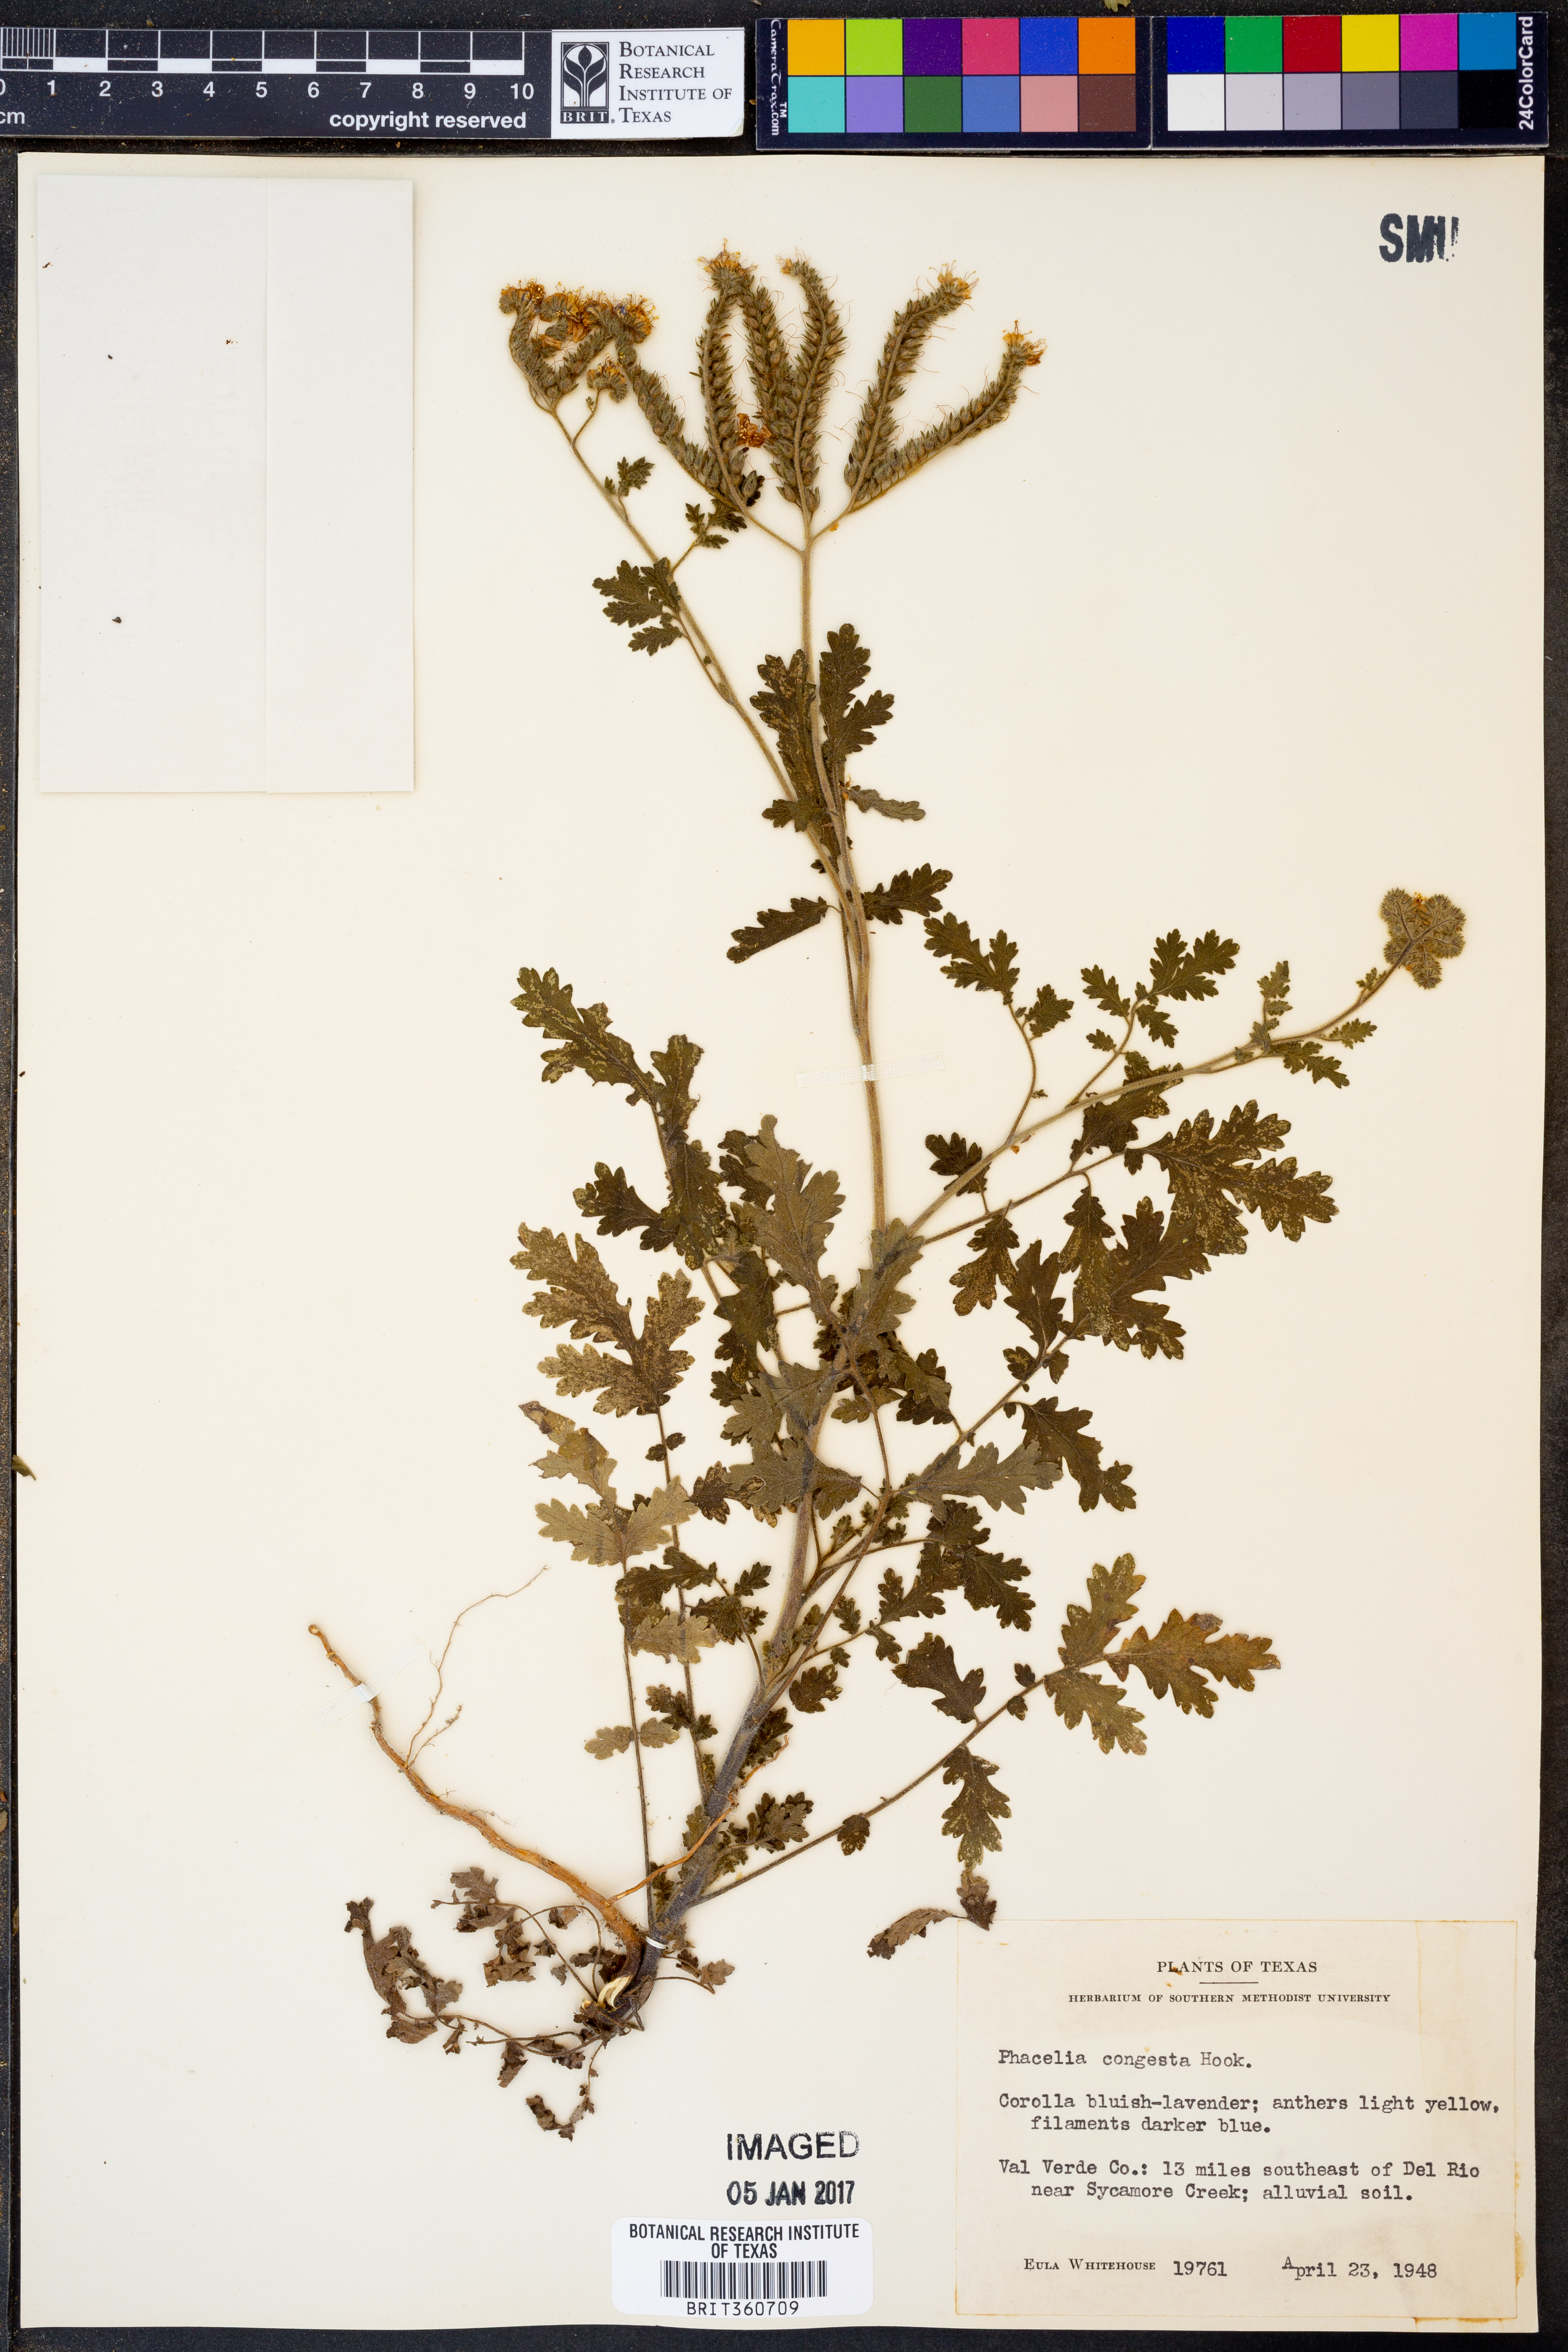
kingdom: Plantae
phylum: Tracheophyta
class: Magnoliopsida
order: Boraginales
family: Hydrophyllaceae
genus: Phacelia
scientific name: Phacelia congesta
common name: Blue curls
